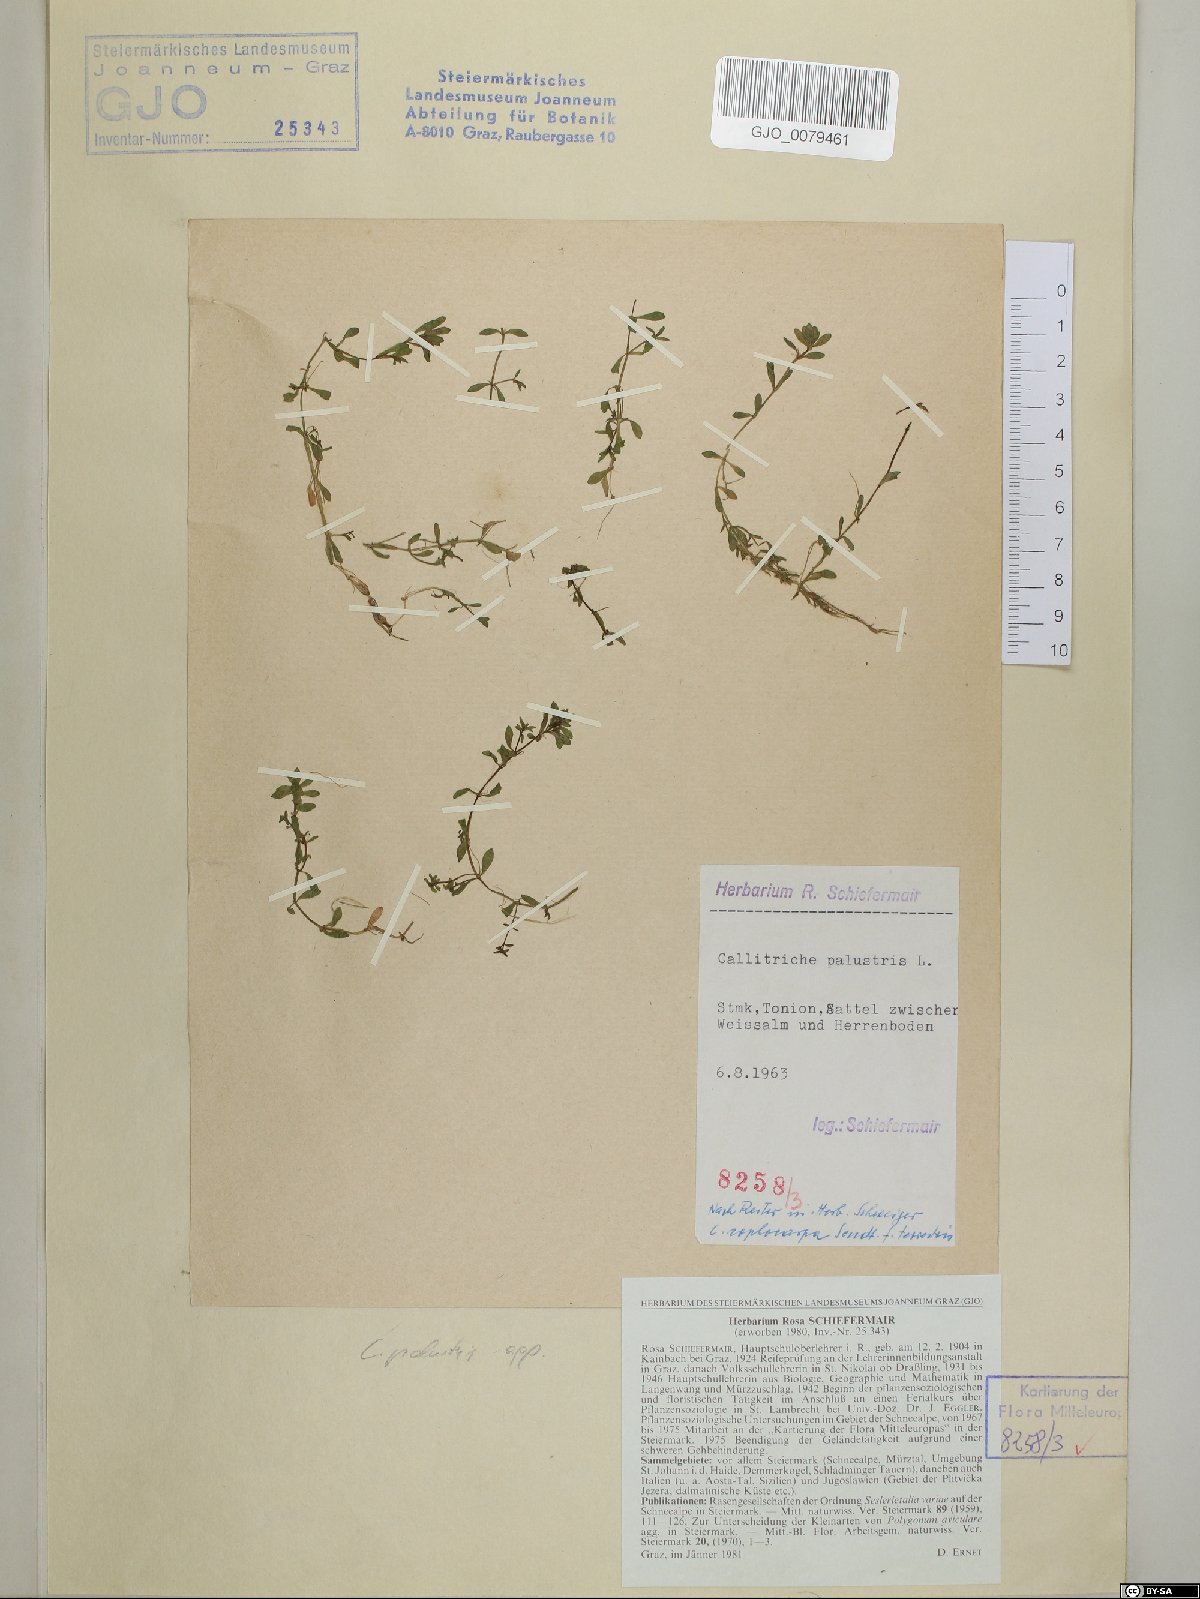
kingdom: Plantae
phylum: Tracheophyta
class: Magnoliopsida
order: Lamiales
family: Plantaginaceae
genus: Callitriche
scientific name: Callitriche palustris
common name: Spring water-starwort
